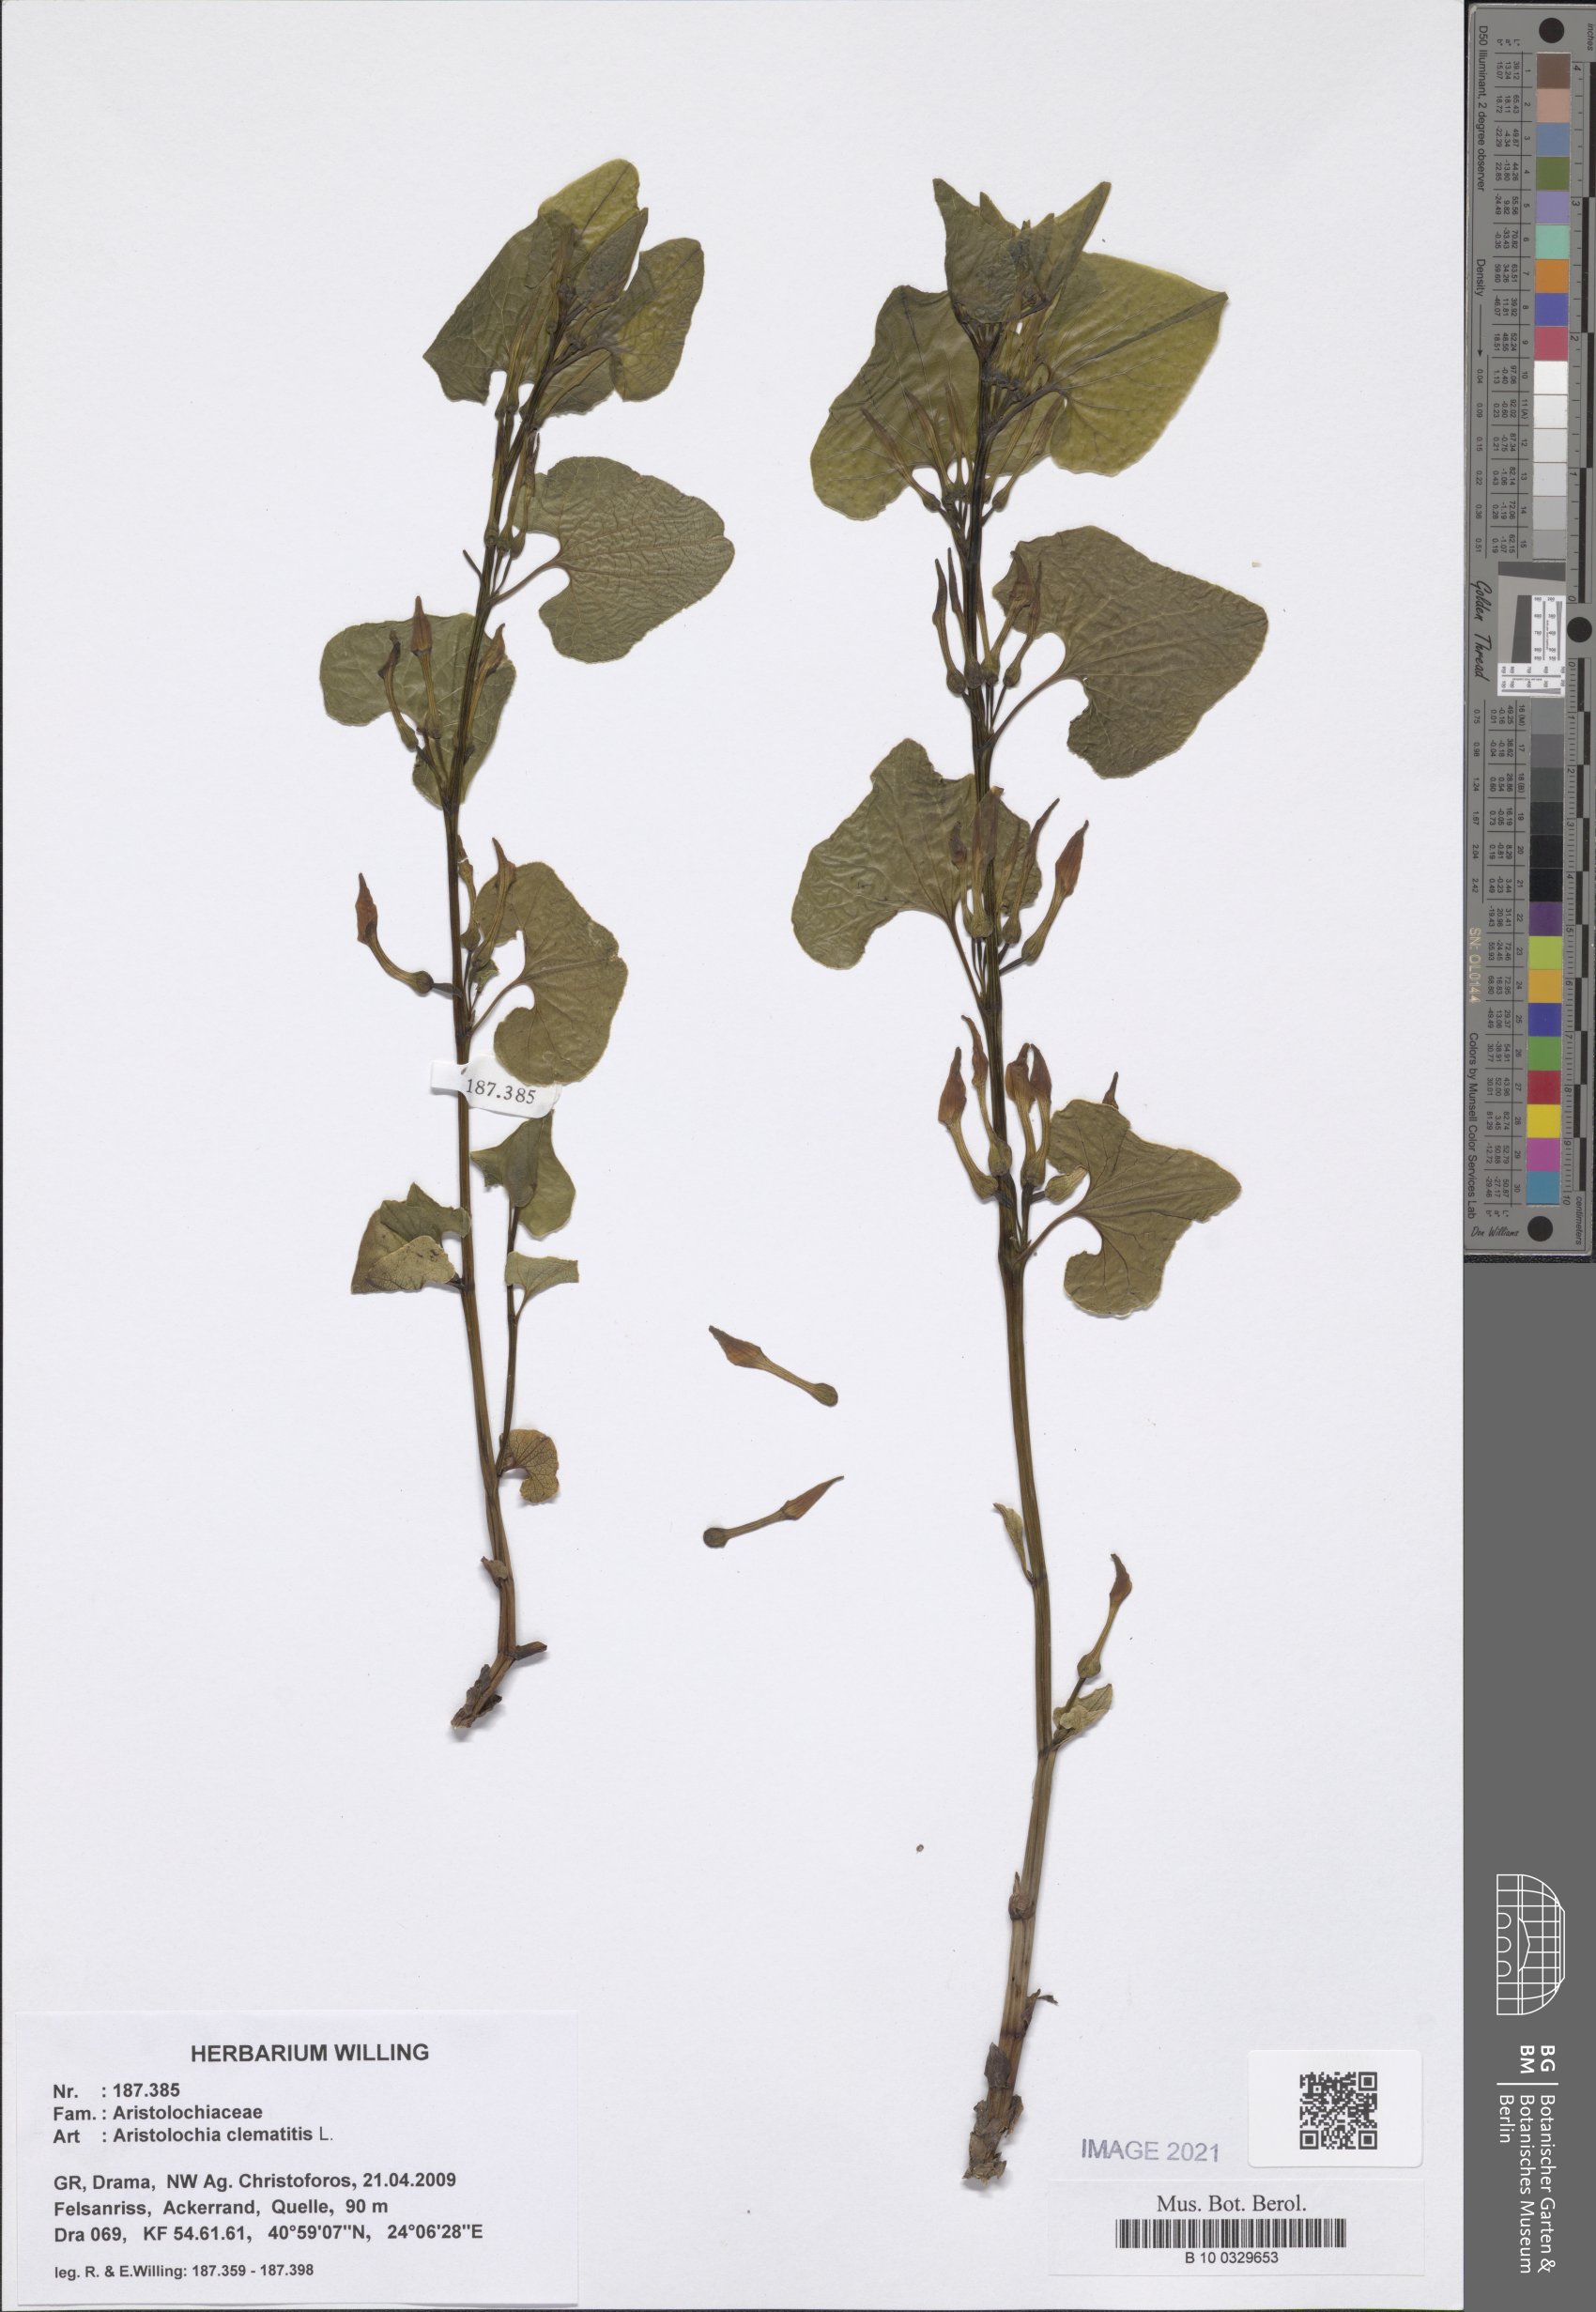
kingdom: Plantae
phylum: Tracheophyta
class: Magnoliopsida
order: Piperales
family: Aristolochiaceae
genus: Aristolochia
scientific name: Aristolochia clematitis
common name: Birthwort
